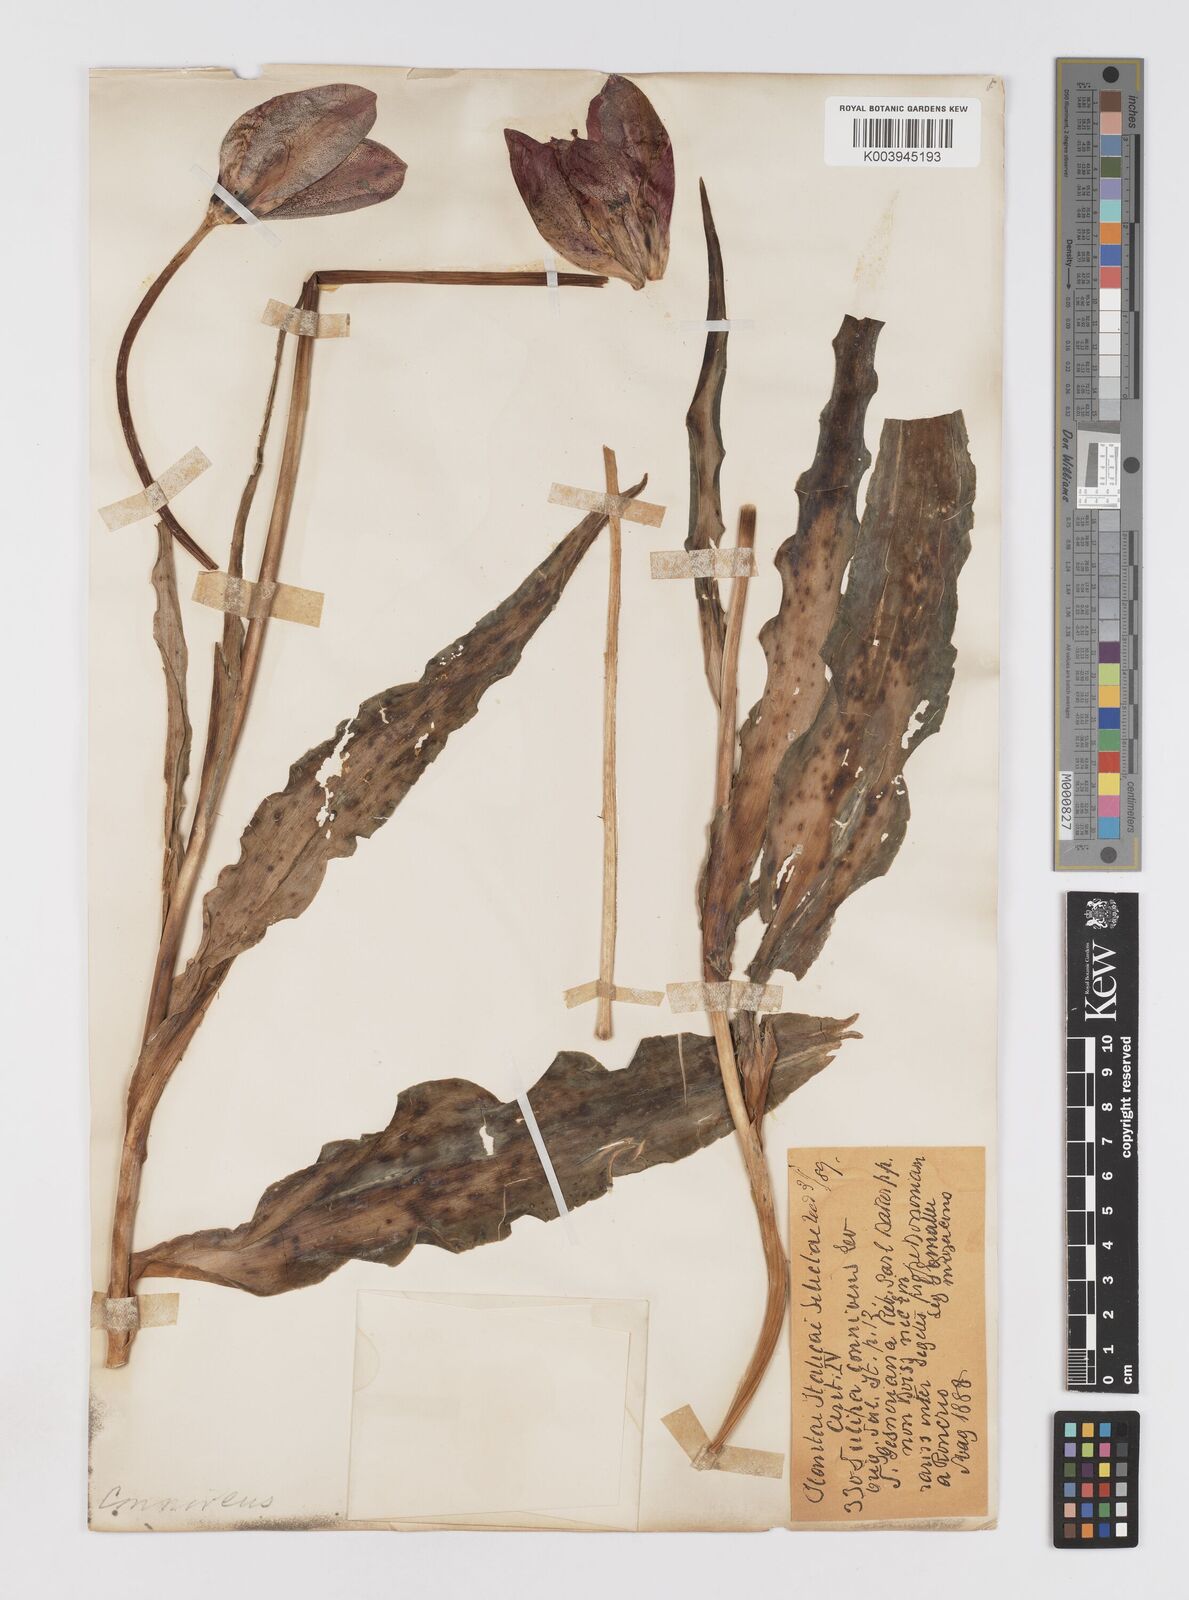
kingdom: Plantae
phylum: Tracheophyta
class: Liliopsida
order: Liliales
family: Liliaceae
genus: Tulipa
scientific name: Tulipa gesneriana
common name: Garden tulip
